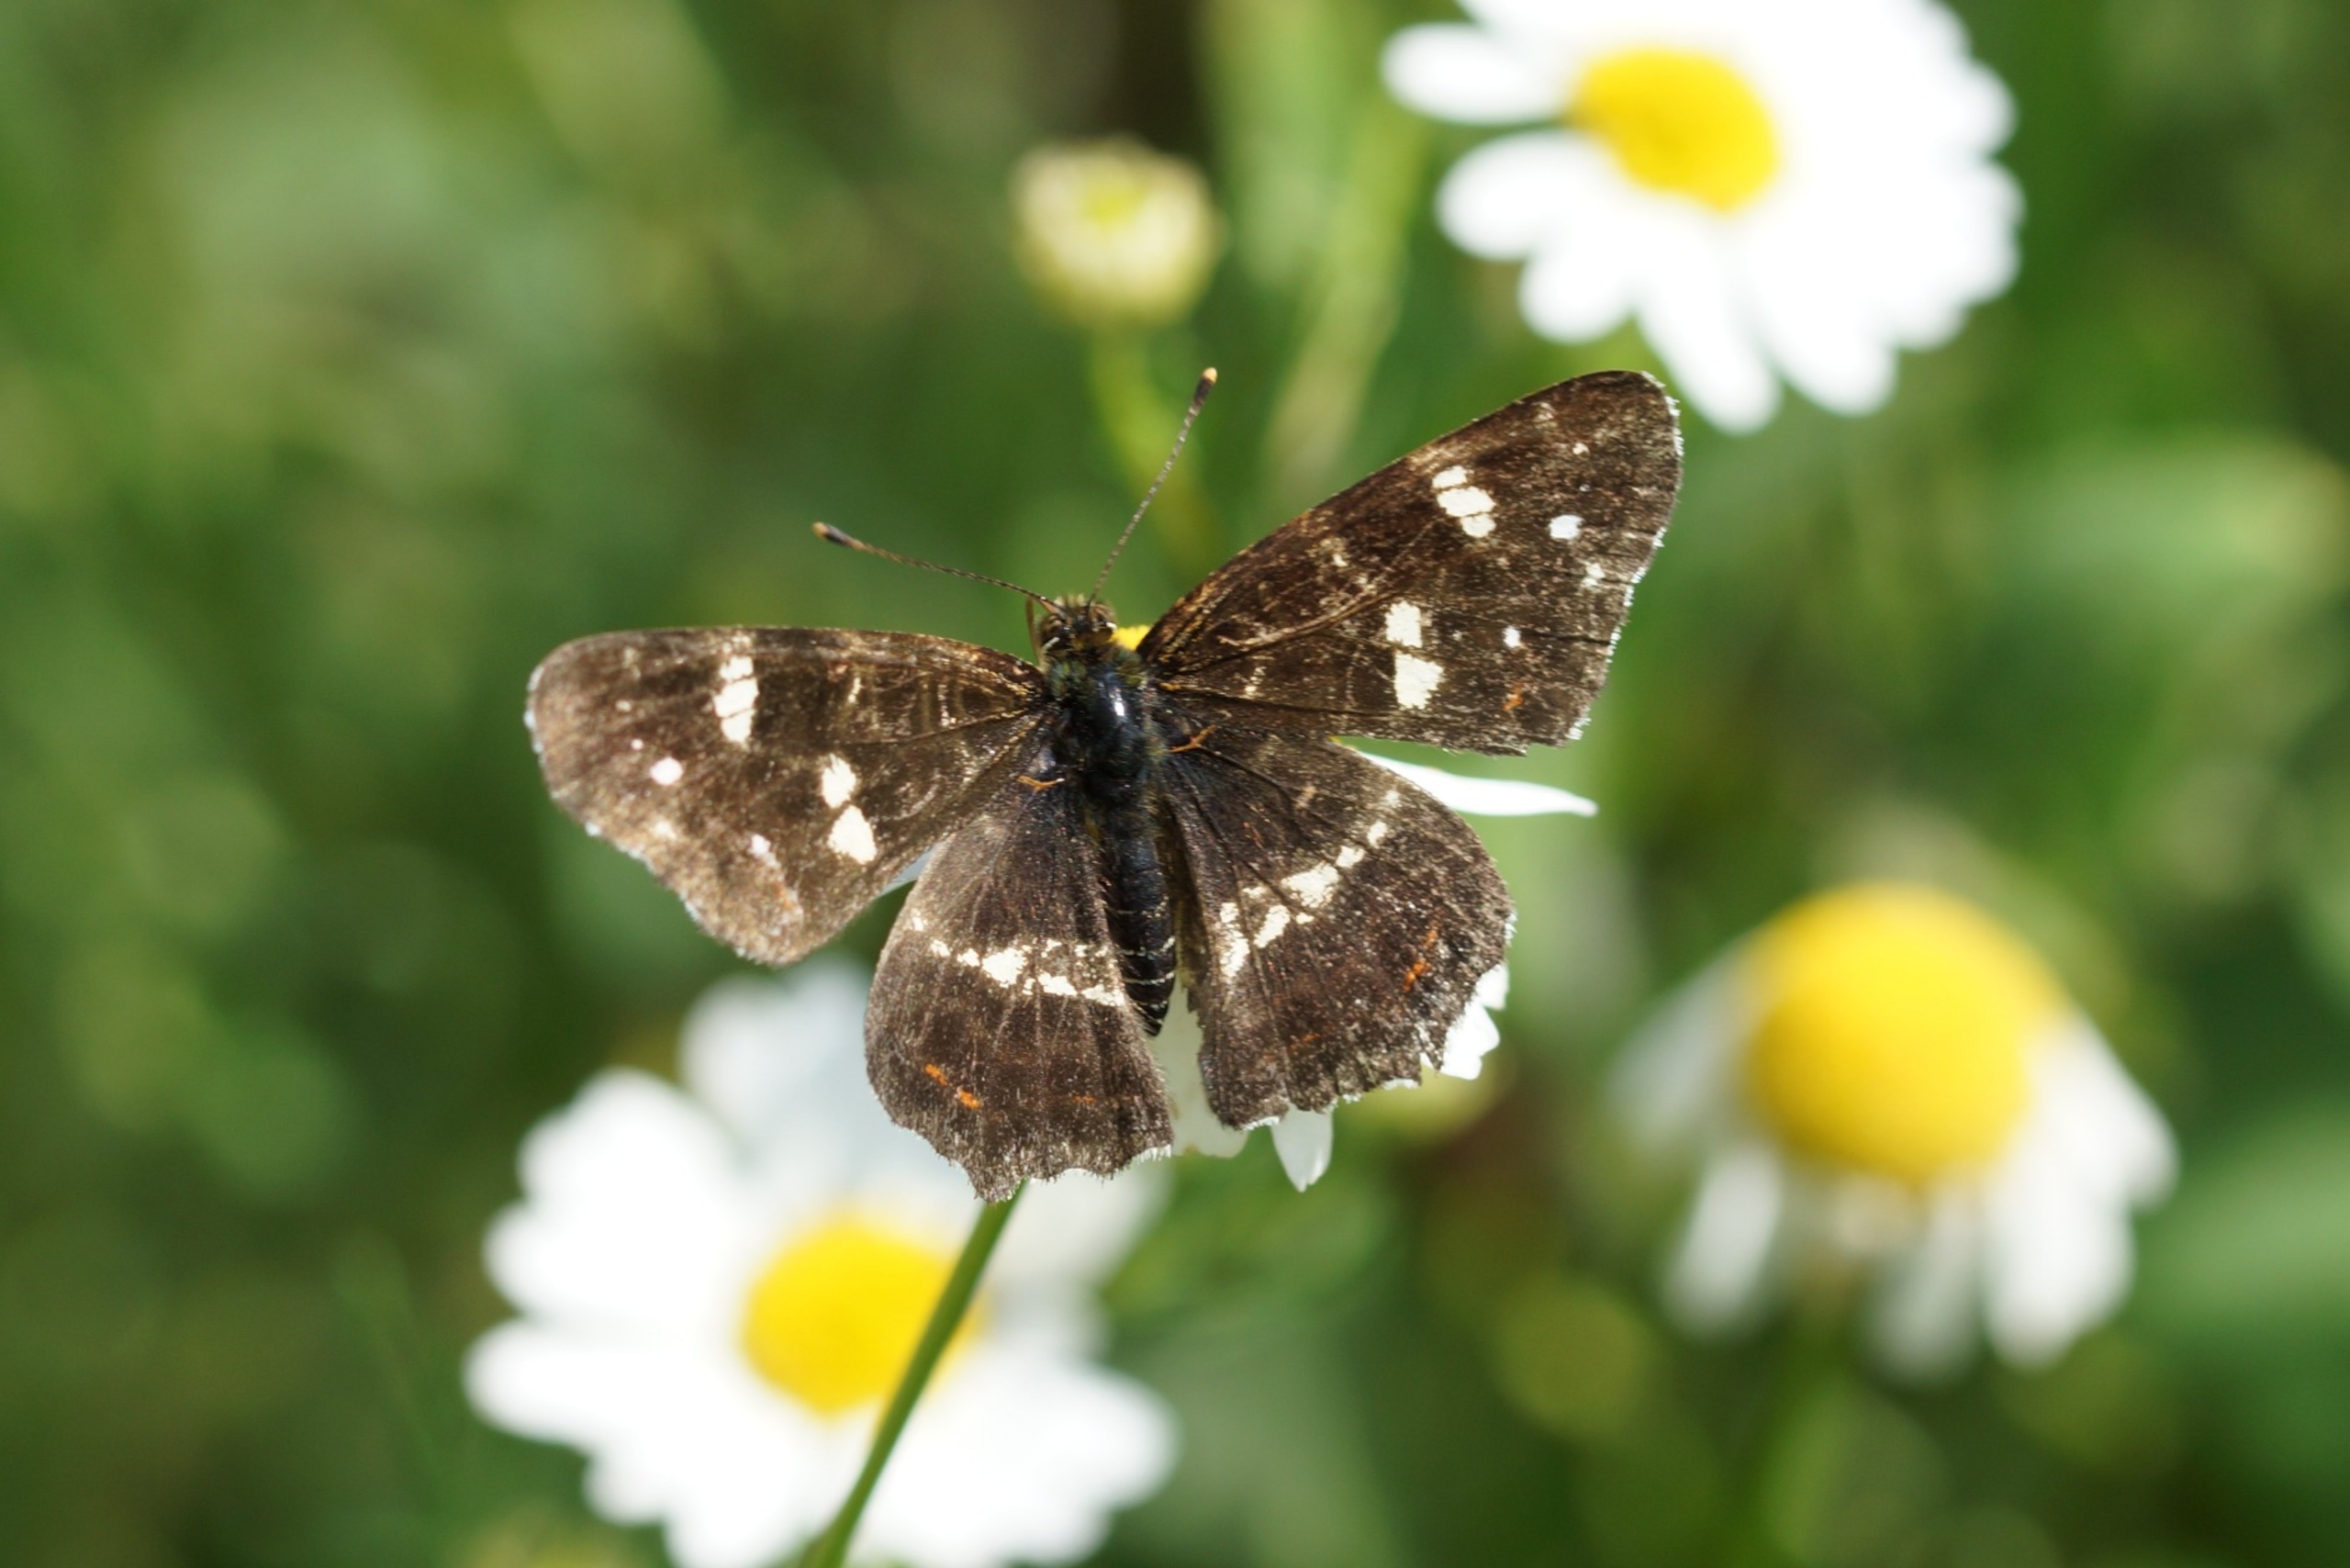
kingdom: Animalia
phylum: Arthropoda
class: Insecta
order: Lepidoptera
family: Nymphalidae
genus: Araschnia
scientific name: Araschnia levana
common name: Nældesommerfugl
